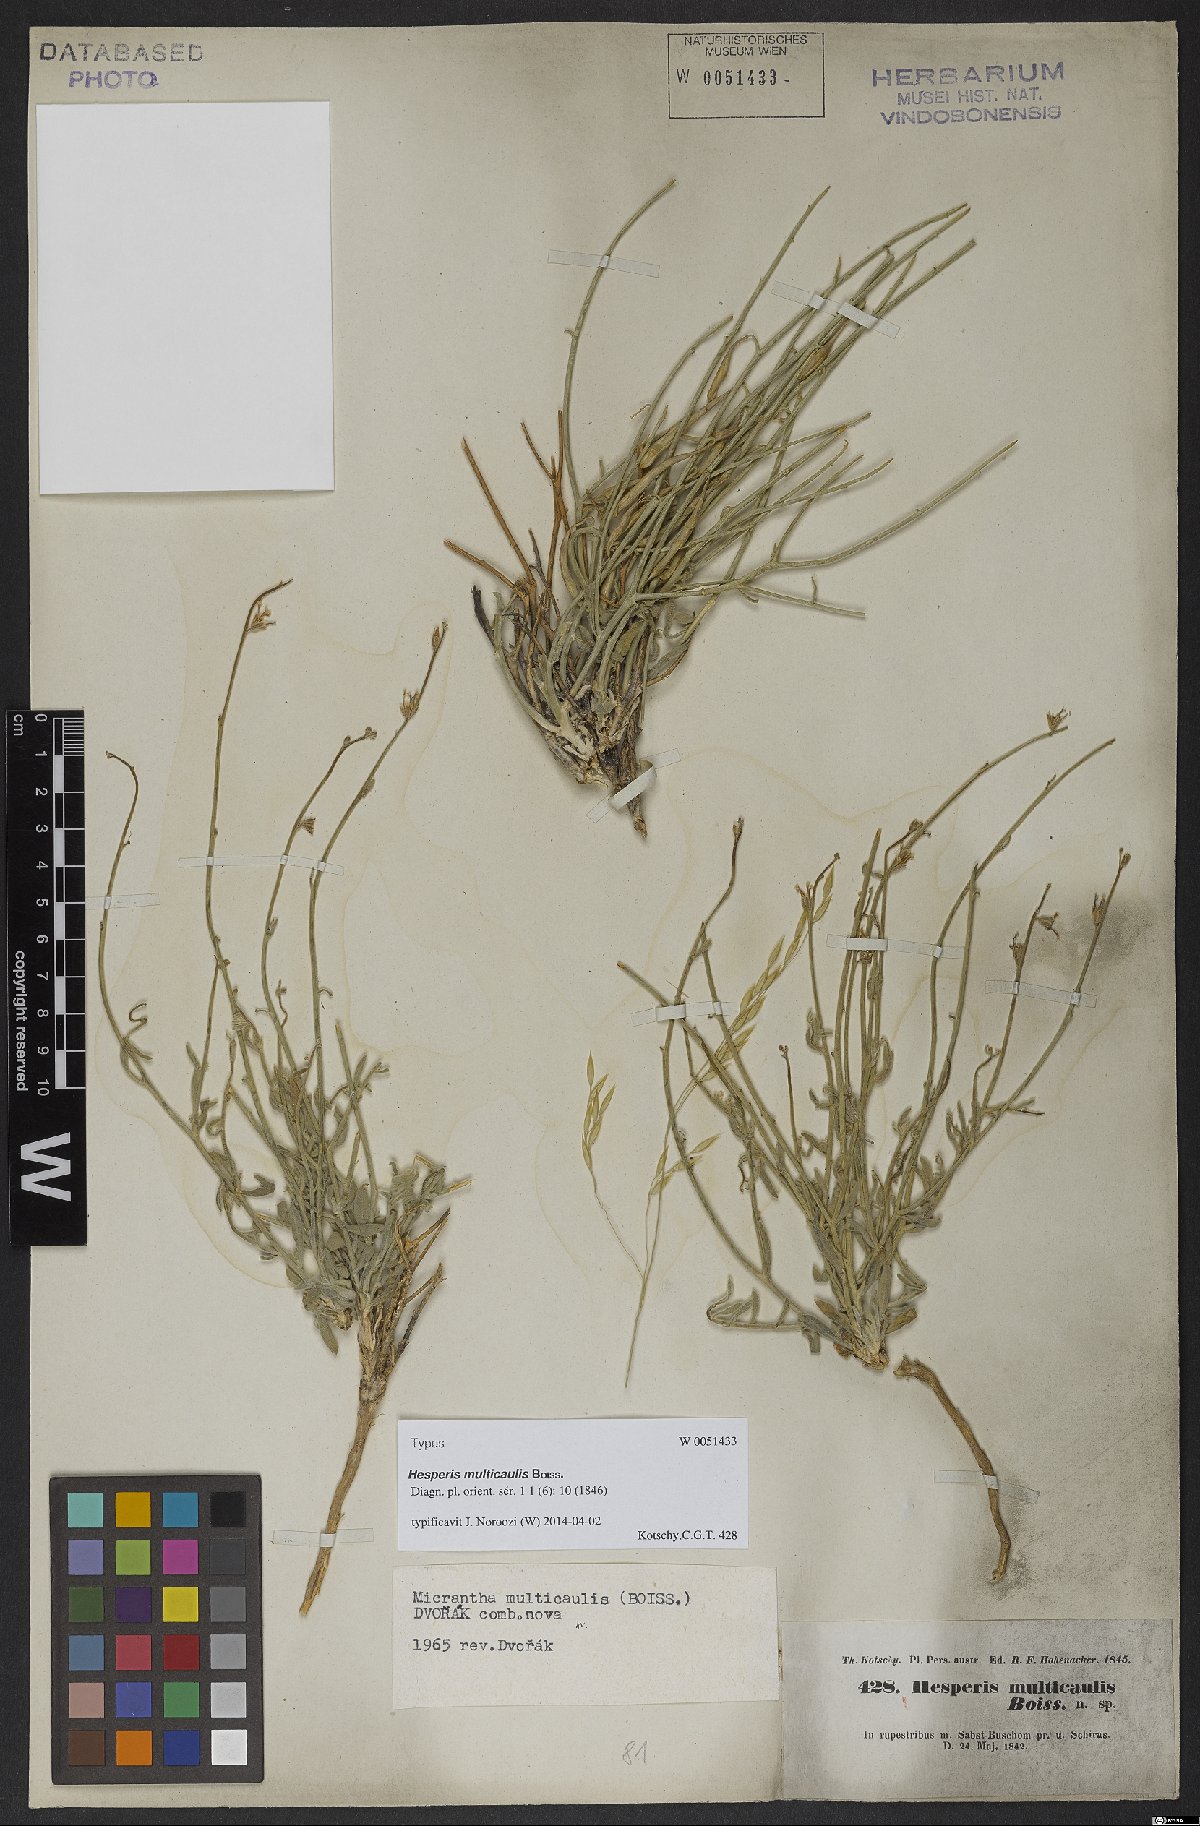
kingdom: Plantae
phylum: Tracheophyta
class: Magnoliopsida
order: Brassicales
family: Brassicaceae
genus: Micrantha
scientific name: Micrantha multicaulis
